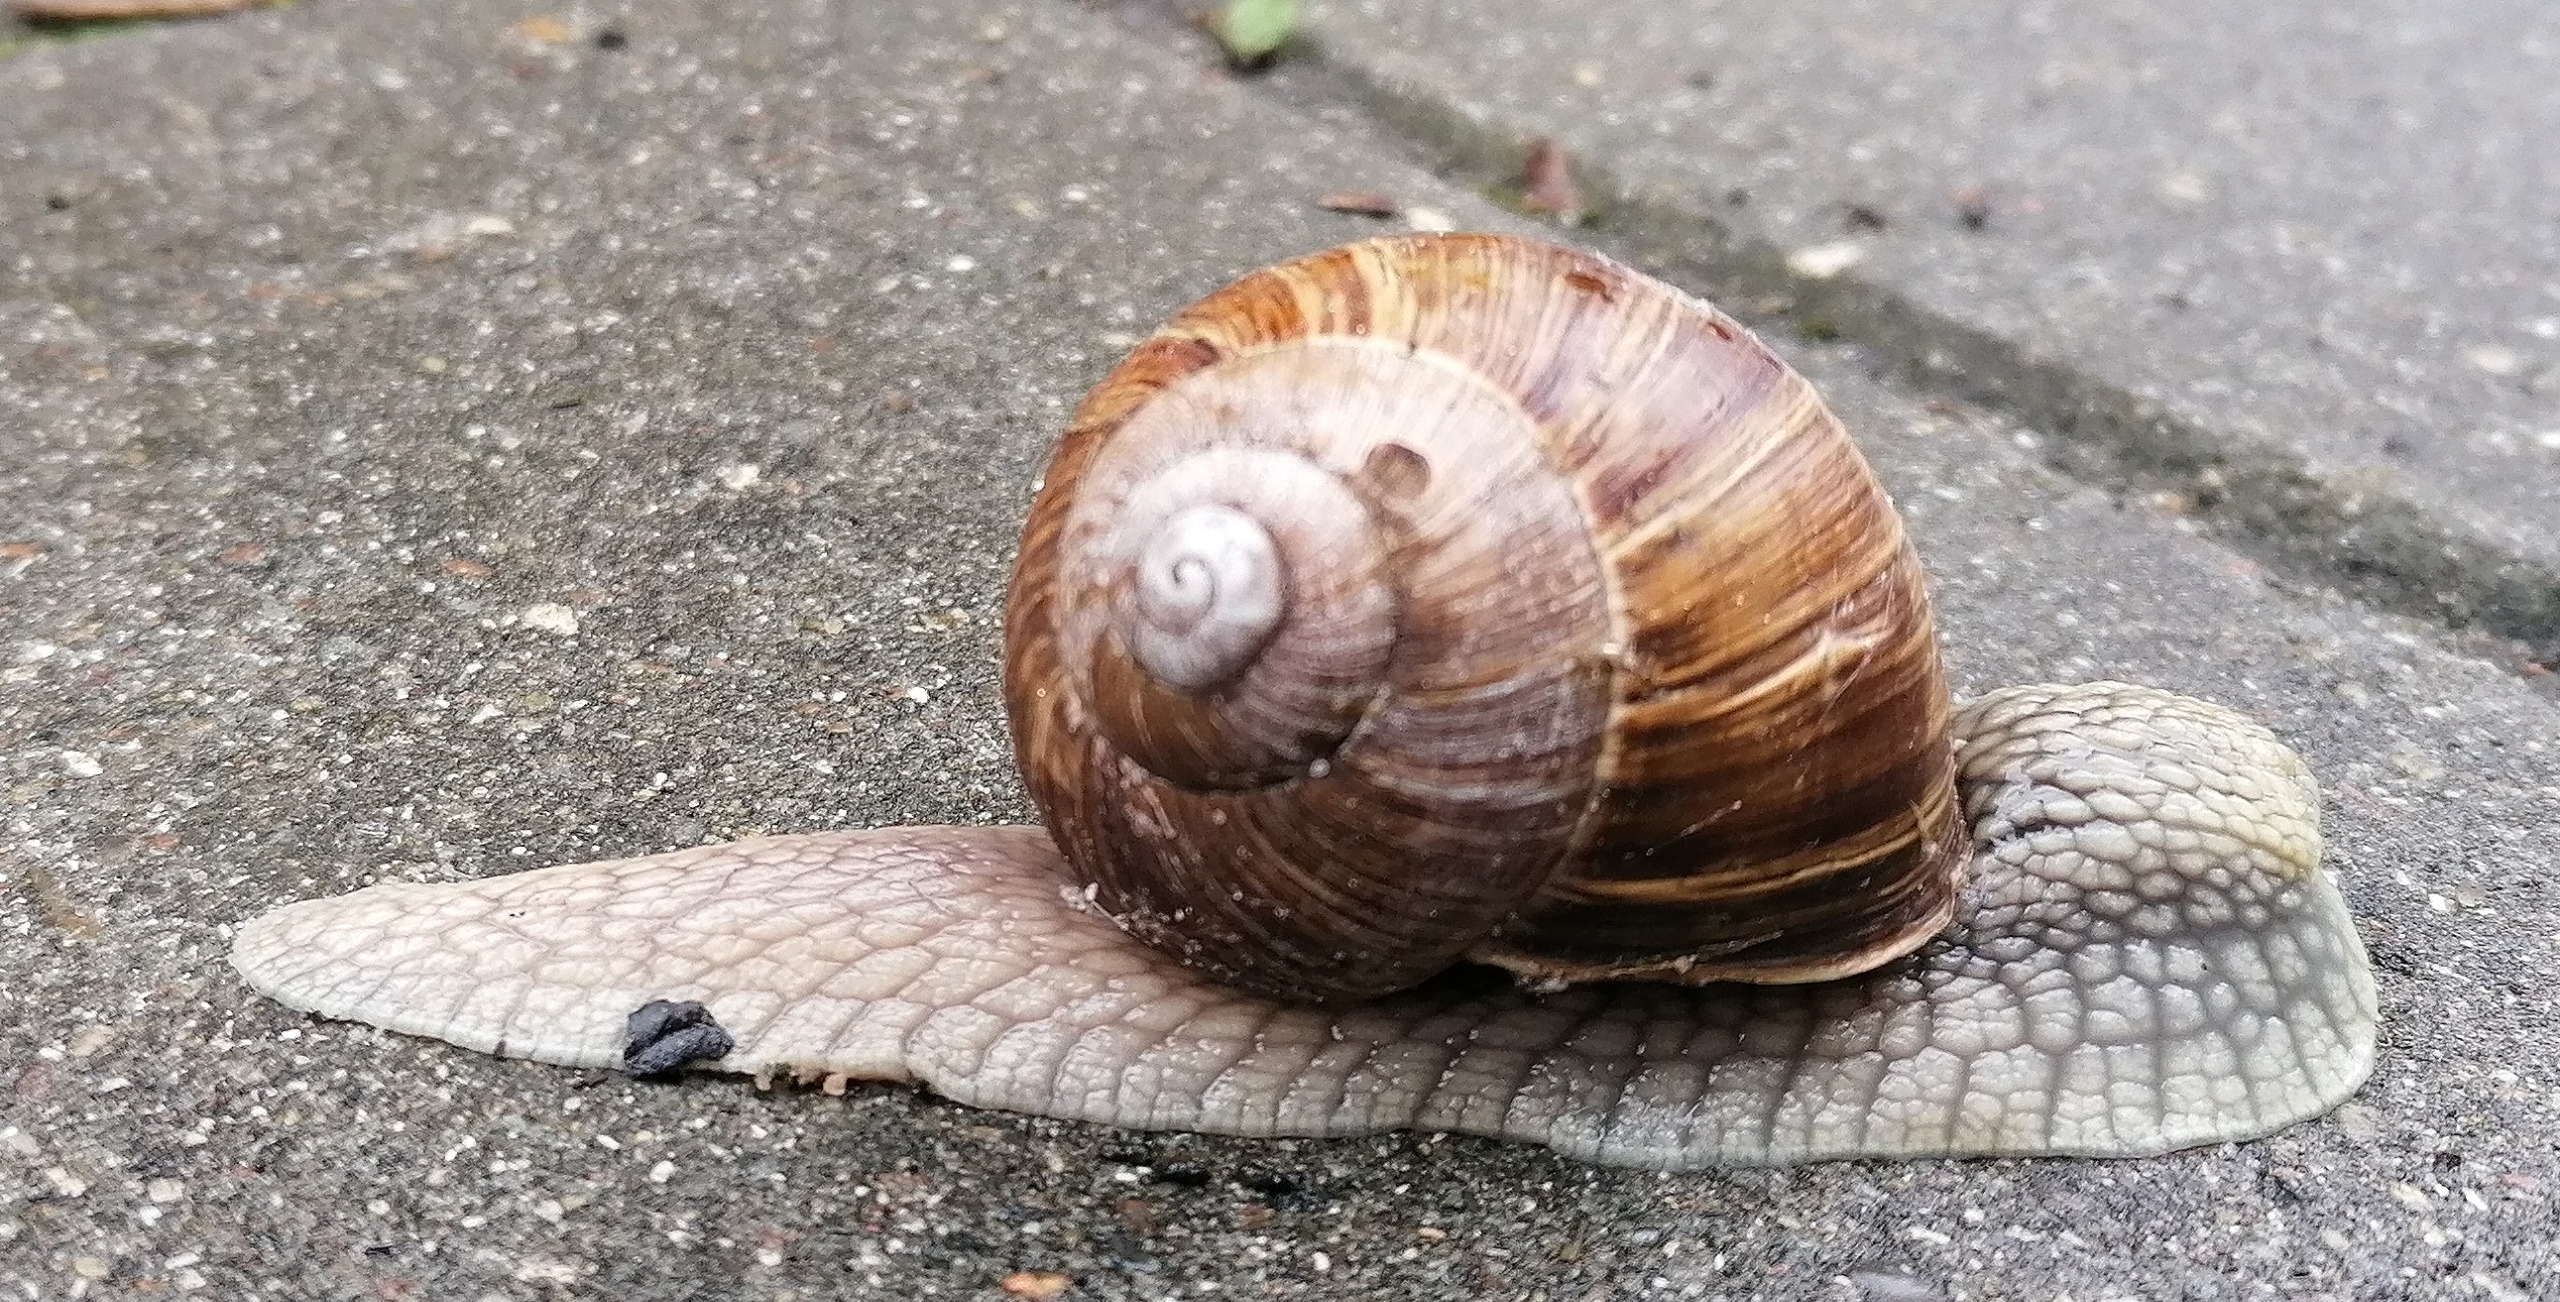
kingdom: Animalia
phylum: Mollusca
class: Gastropoda
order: Stylommatophora
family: Helicidae
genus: Helix
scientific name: Helix pomatia
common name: Vinbjergsnegl
